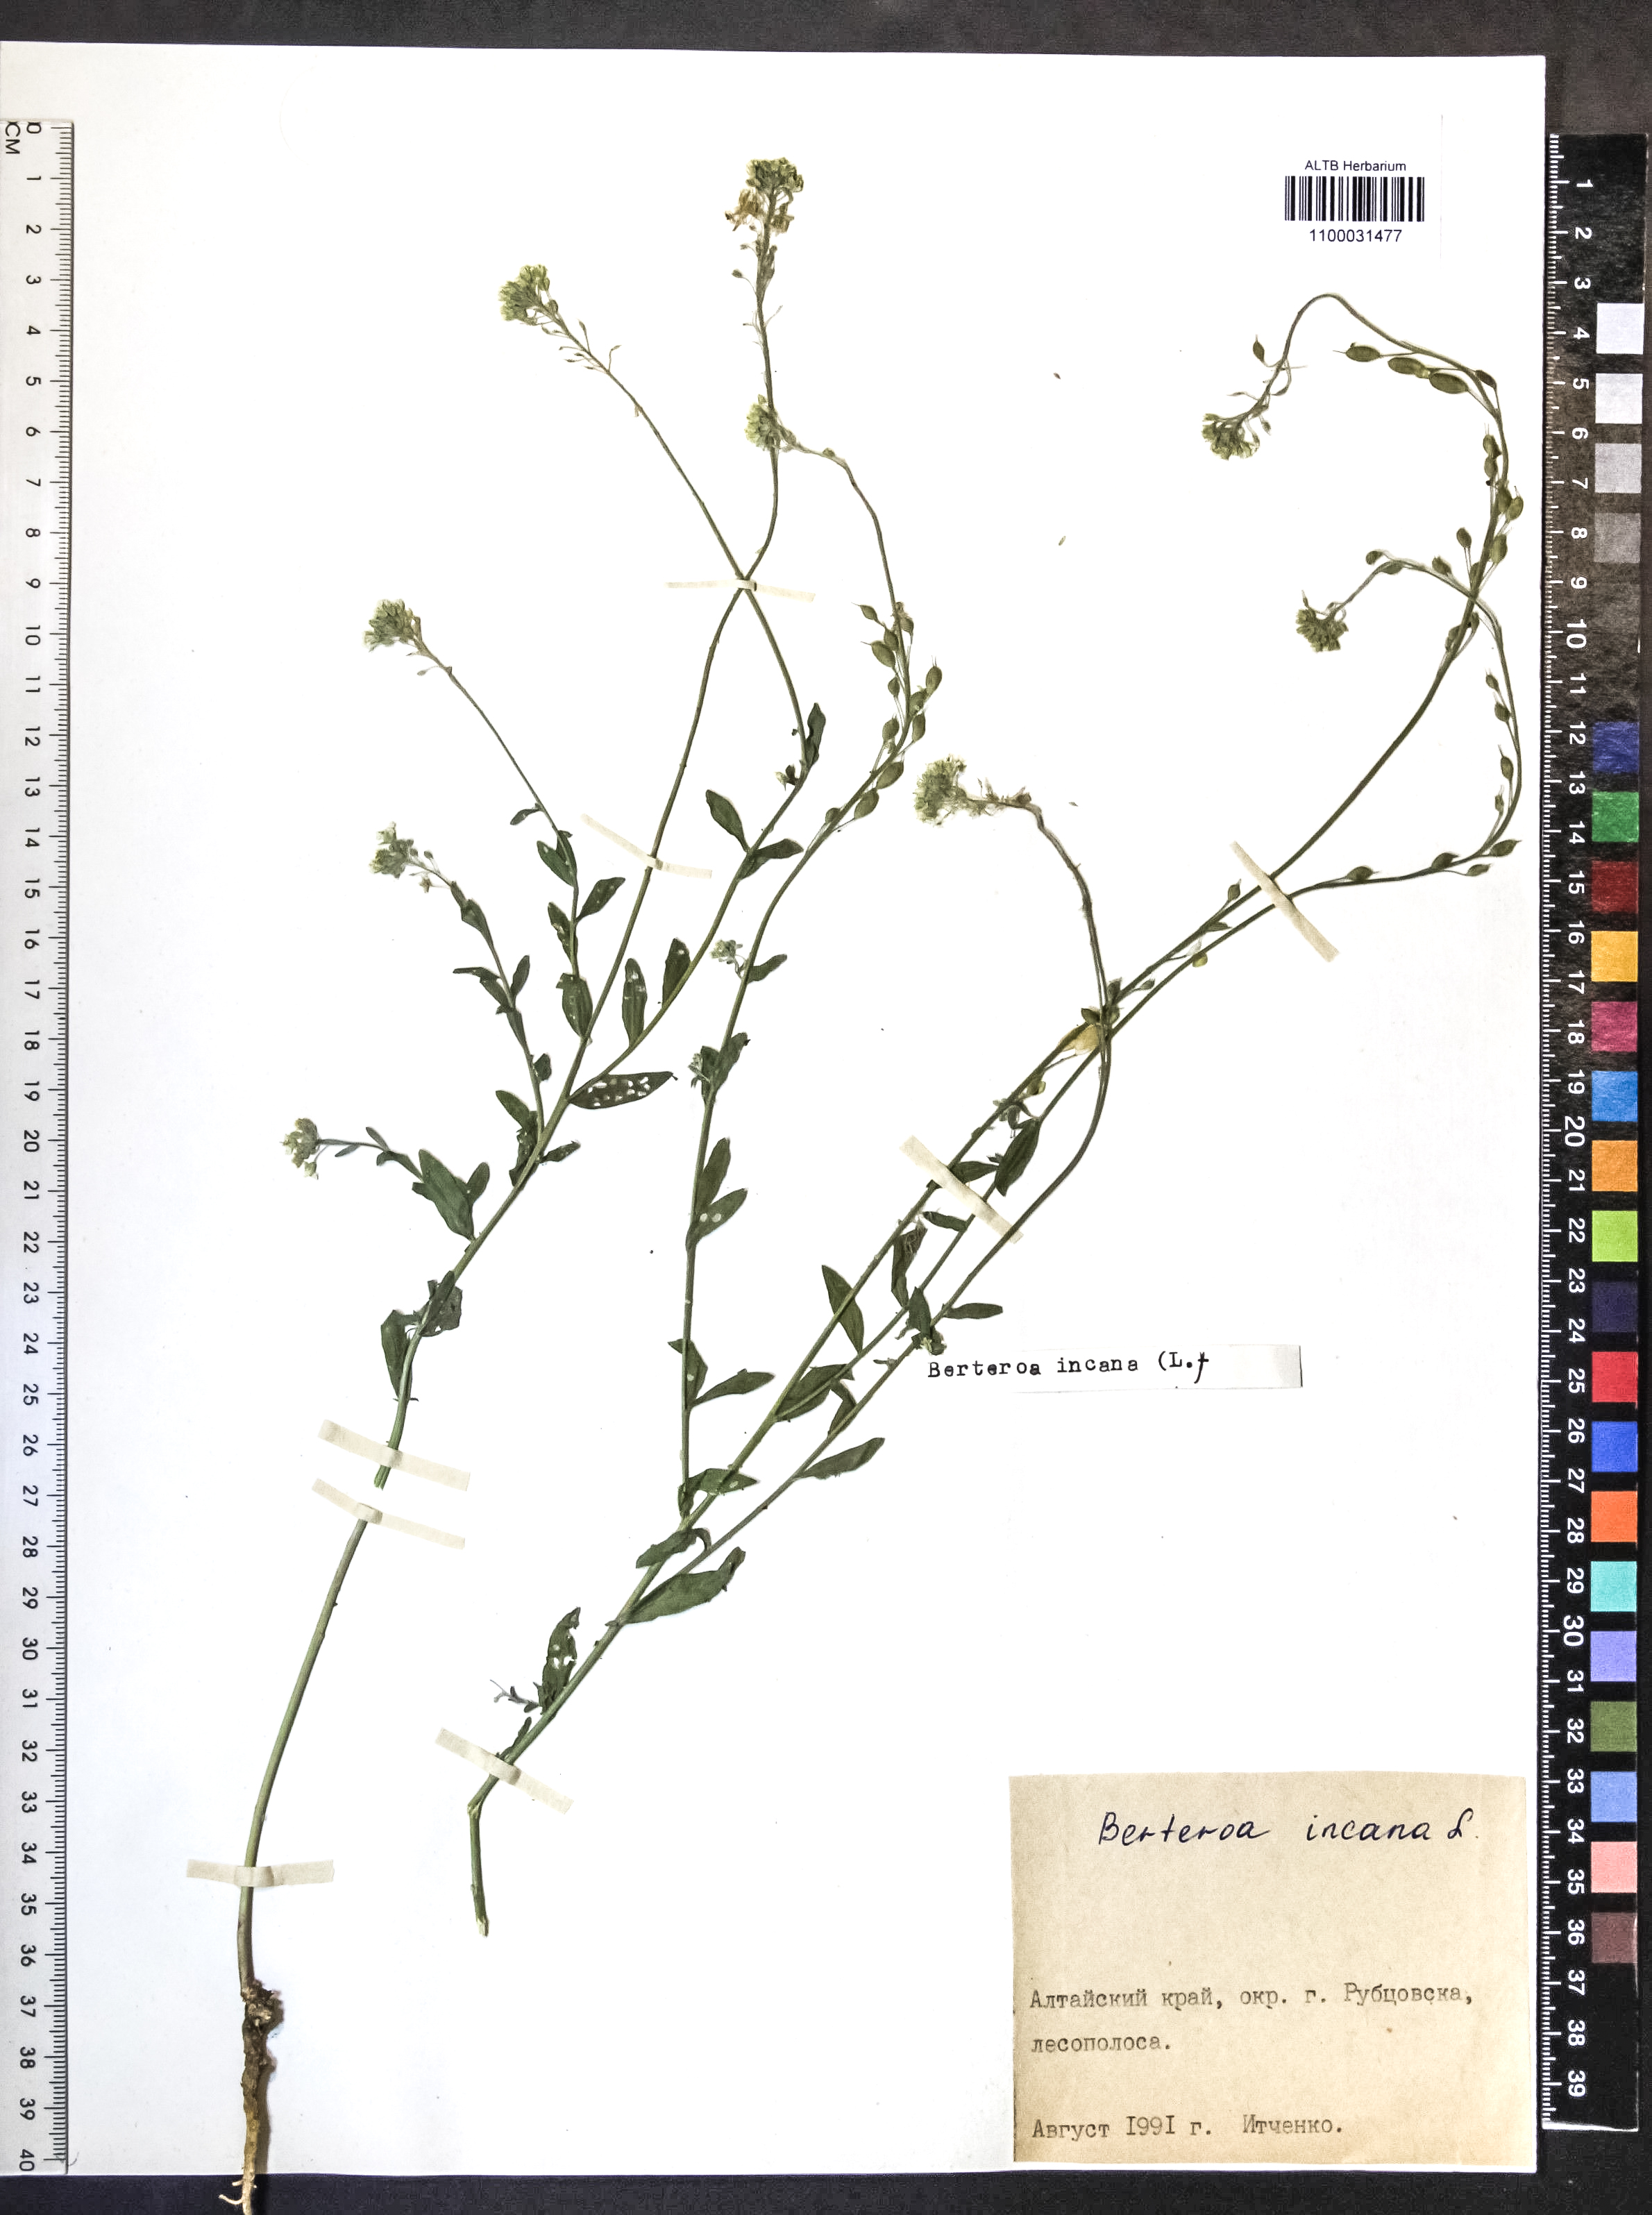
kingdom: Plantae
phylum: Tracheophyta
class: Magnoliopsida
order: Brassicales
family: Brassicaceae
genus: Berteroa
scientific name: Berteroa incana
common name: Hoary alison
